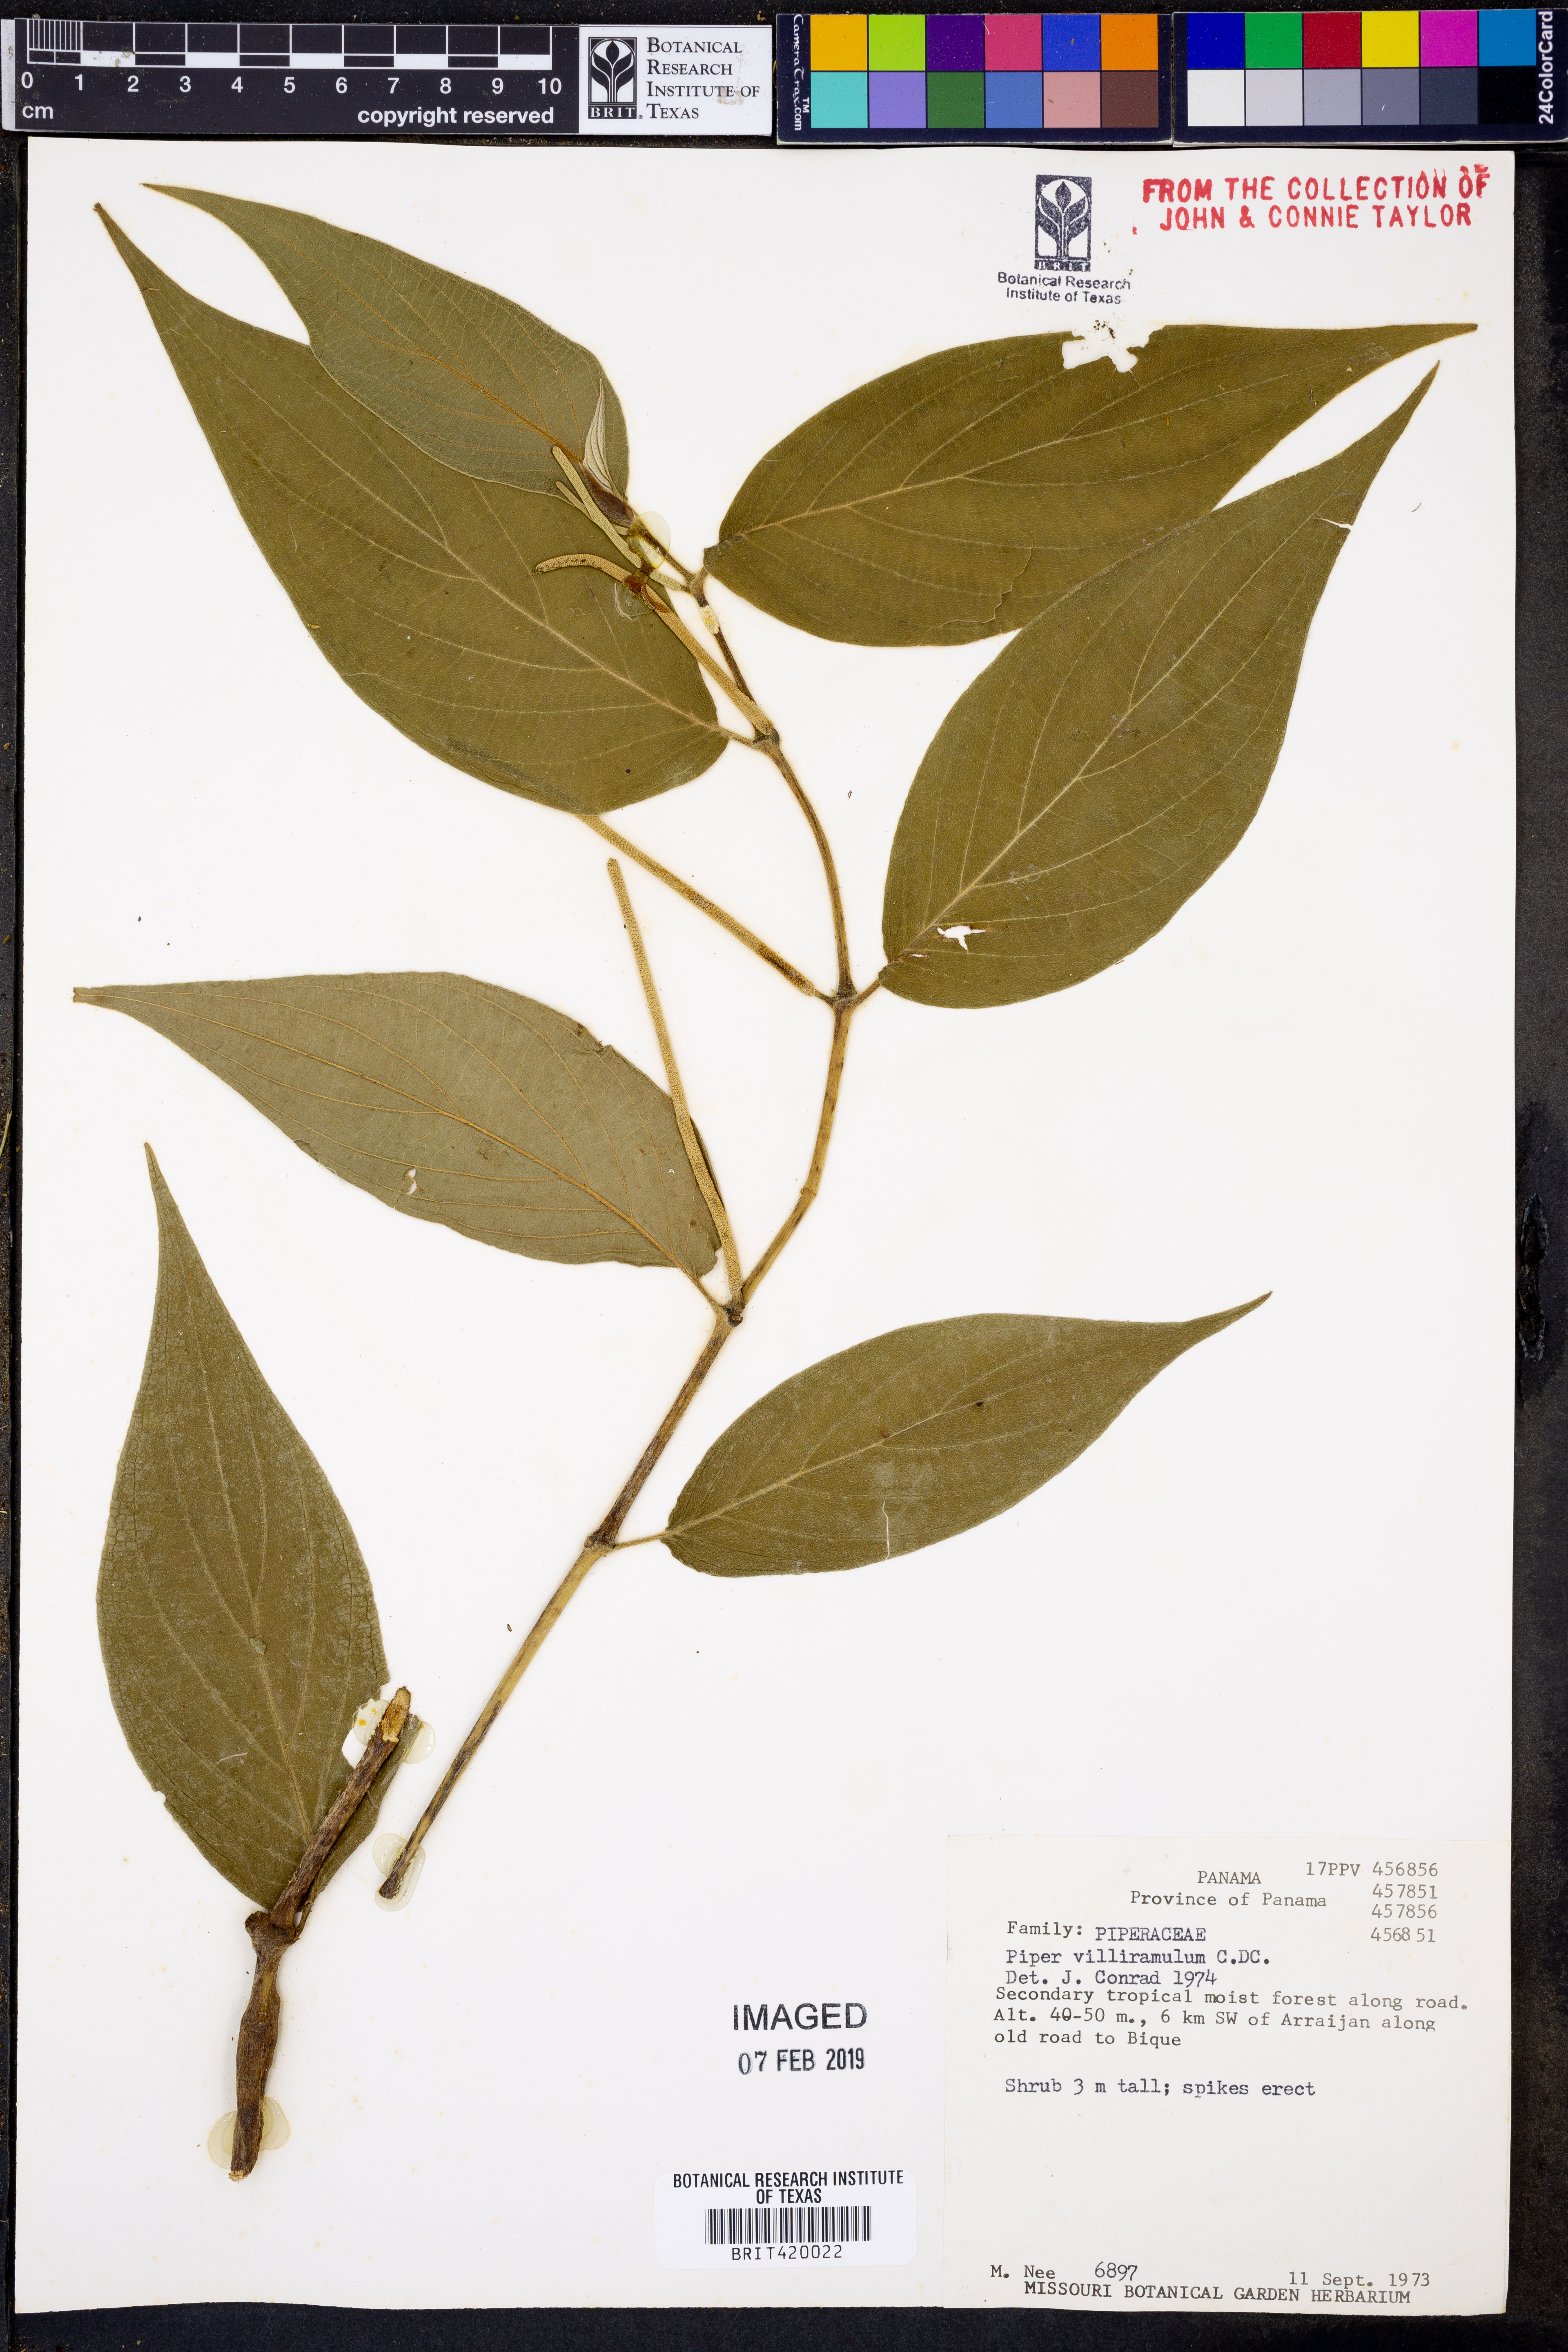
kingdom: Plantae
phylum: Tracheophyta
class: Magnoliopsida
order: Piperales
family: Piperaceae
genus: Piper
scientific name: Piper villiramulum
